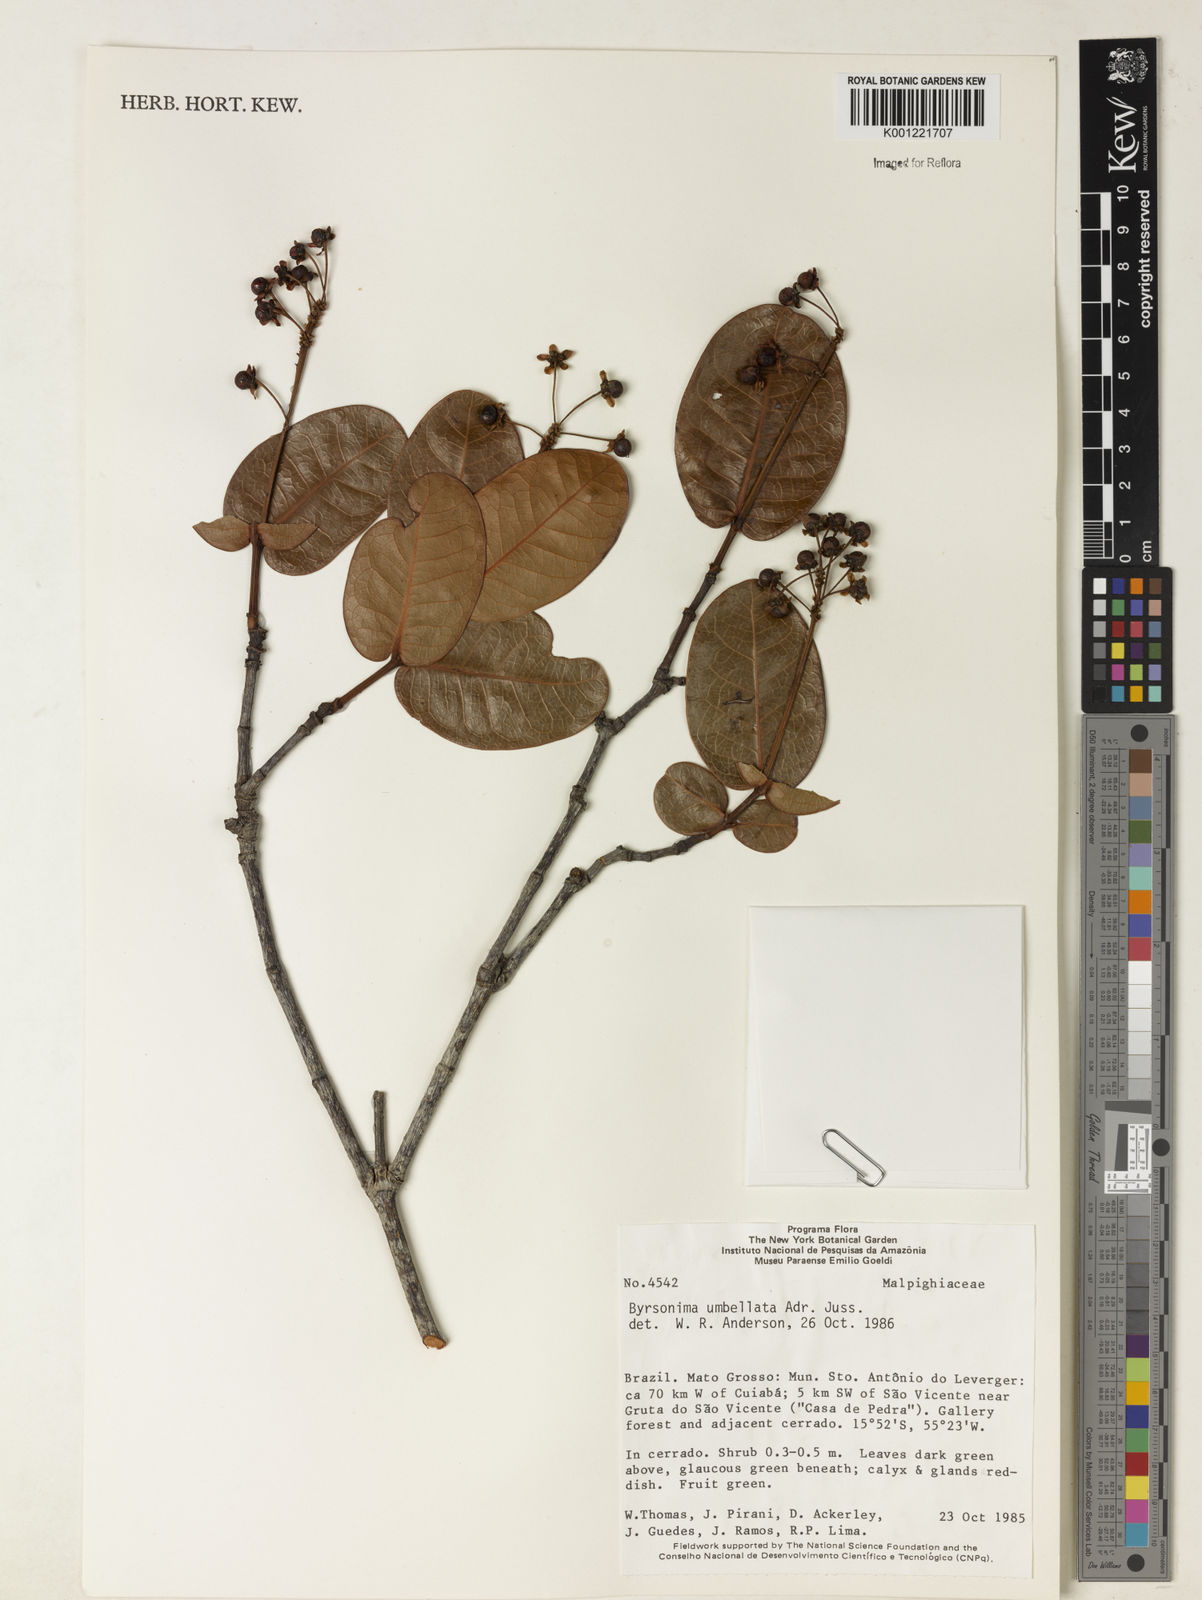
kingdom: Plantae
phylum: Tracheophyta
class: Magnoliopsida
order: Malpighiales
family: Malpighiaceae
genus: Byrsonima
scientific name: Byrsonima umbellata
